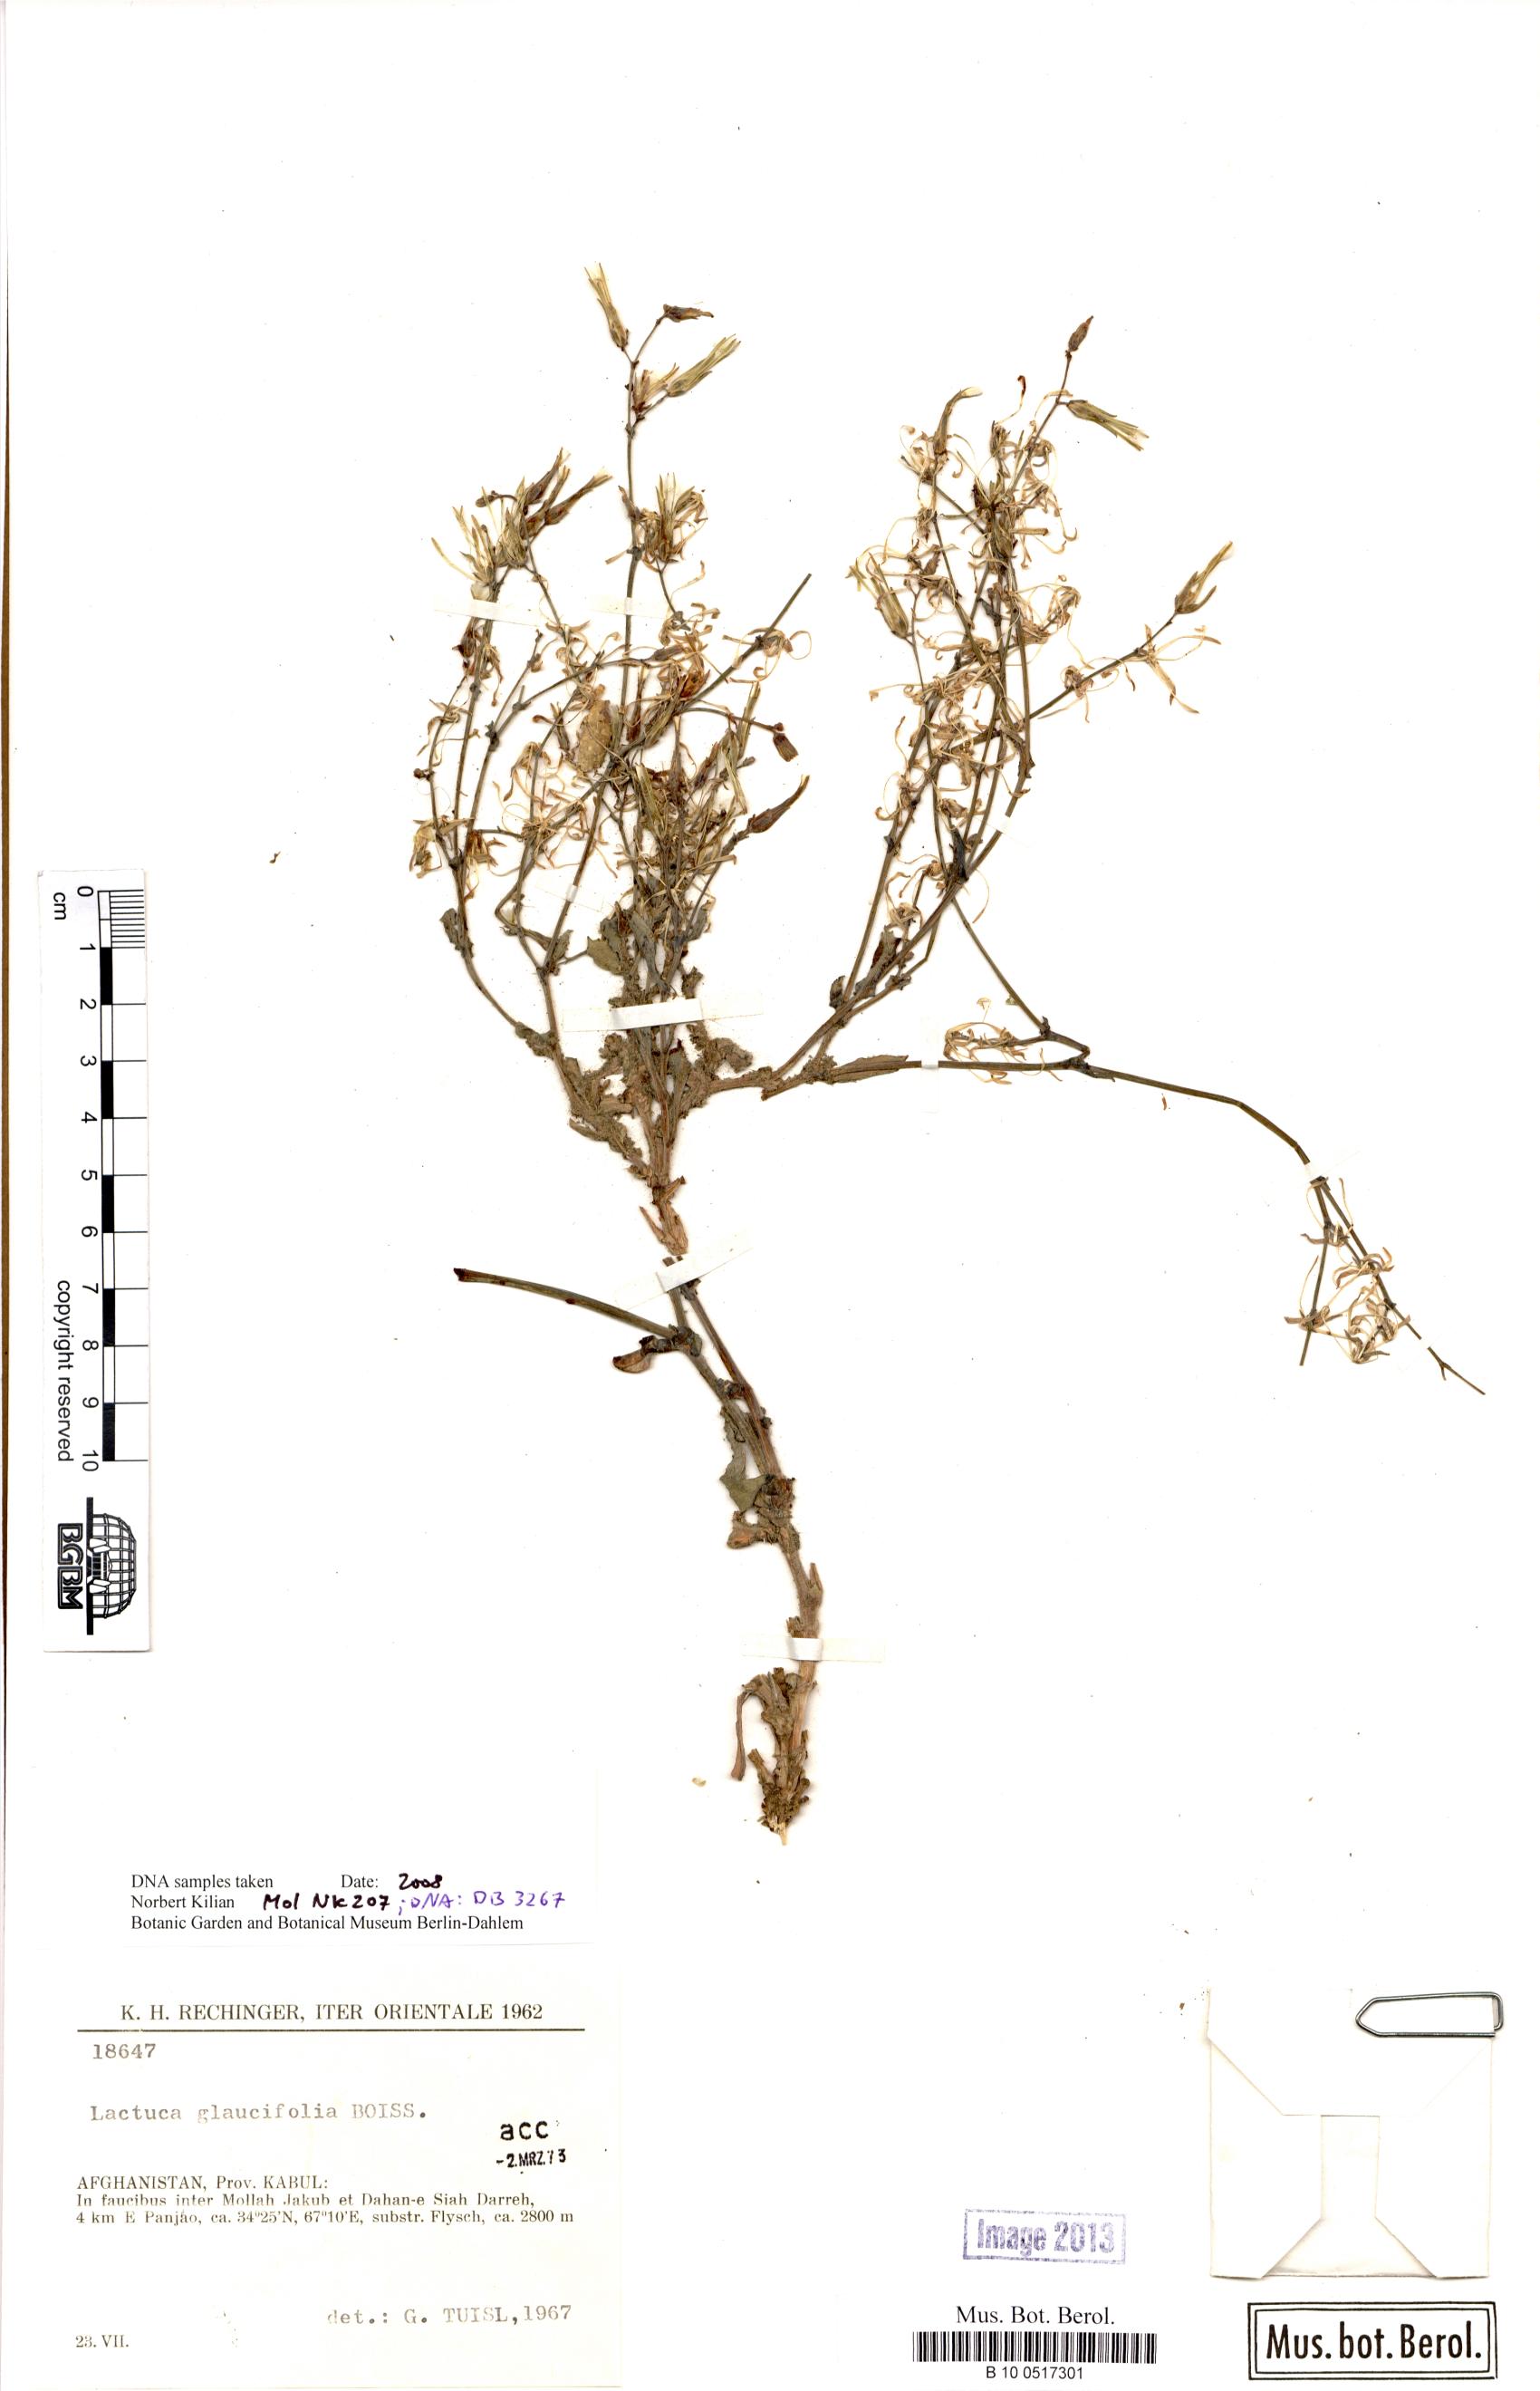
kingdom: Plantae
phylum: Tracheophyta
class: Magnoliopsida
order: Asterales
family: Asteraceae
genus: Lactuca
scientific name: Lactuca glaucifolia
